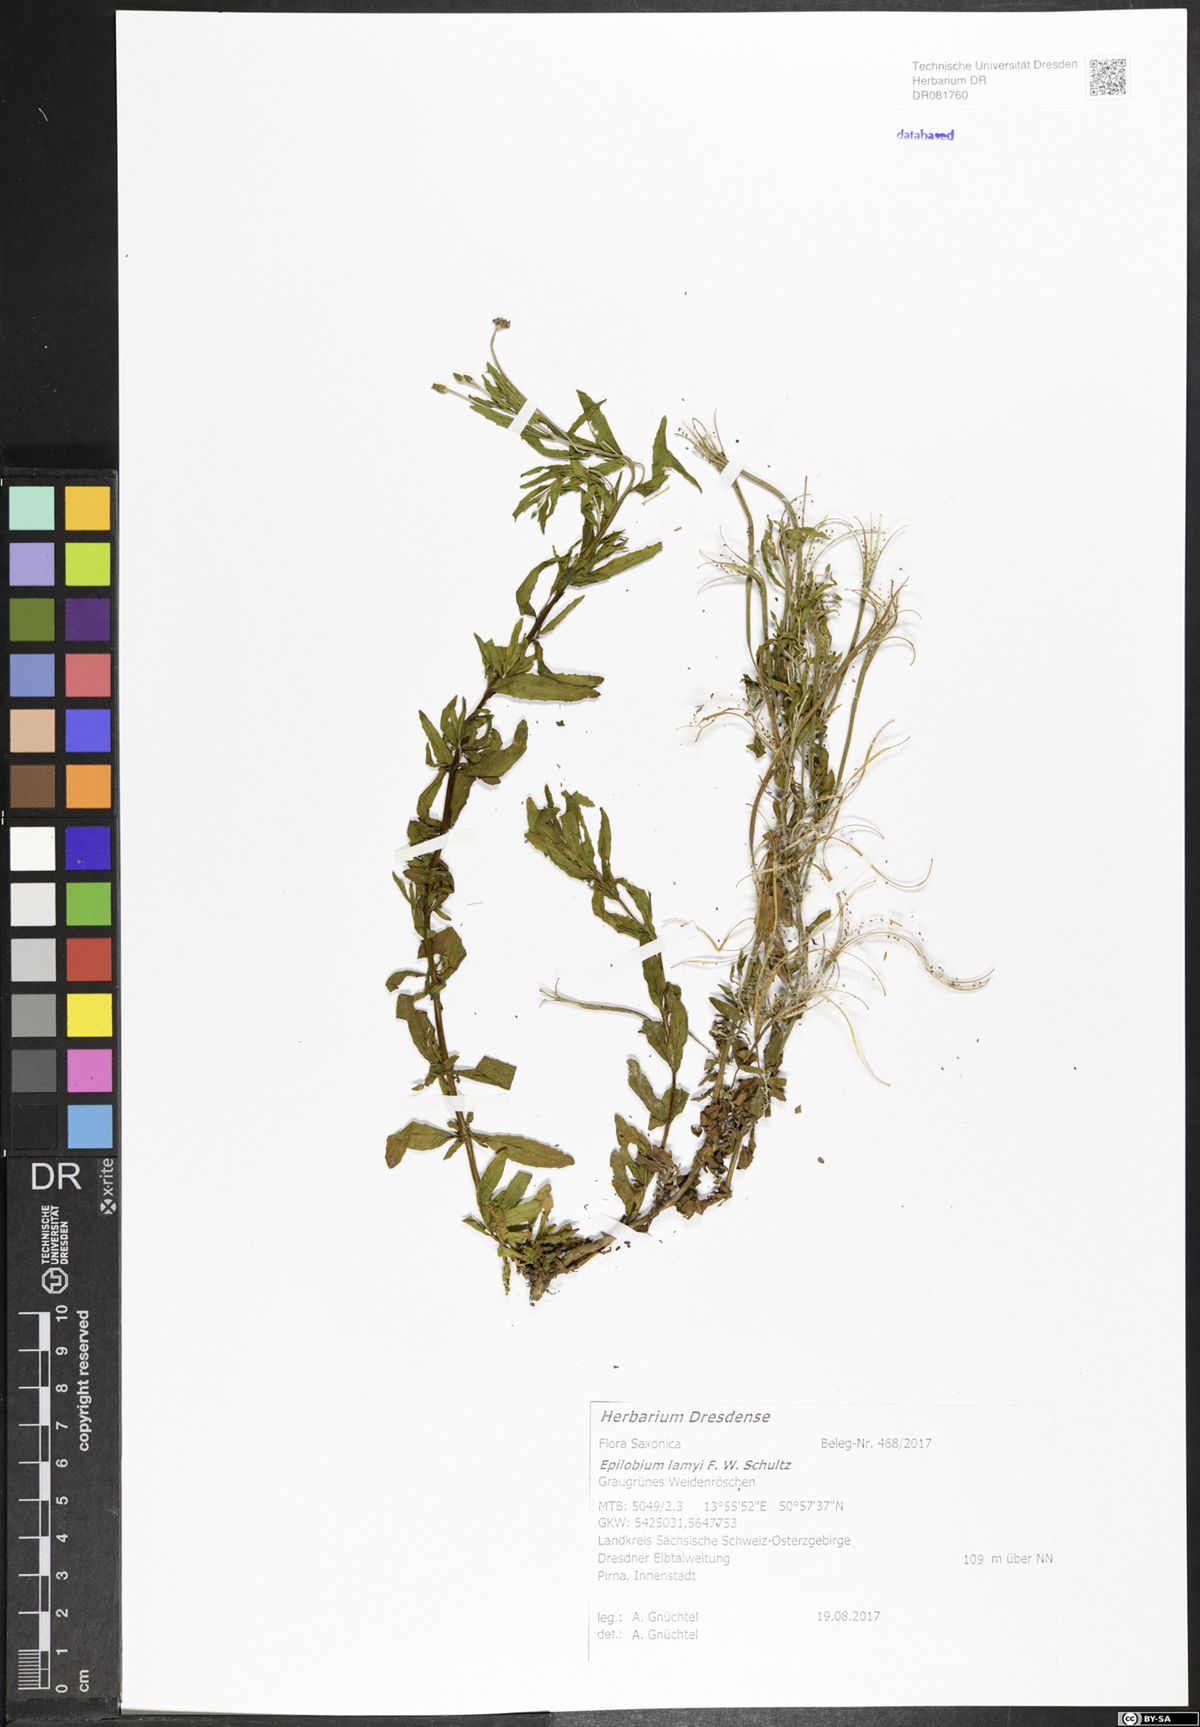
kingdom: Plantae
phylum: Tracheophyta
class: Magnoliopsida
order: Myrtales
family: Onagraceae
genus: Epilobium
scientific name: Epilobium lamyi
